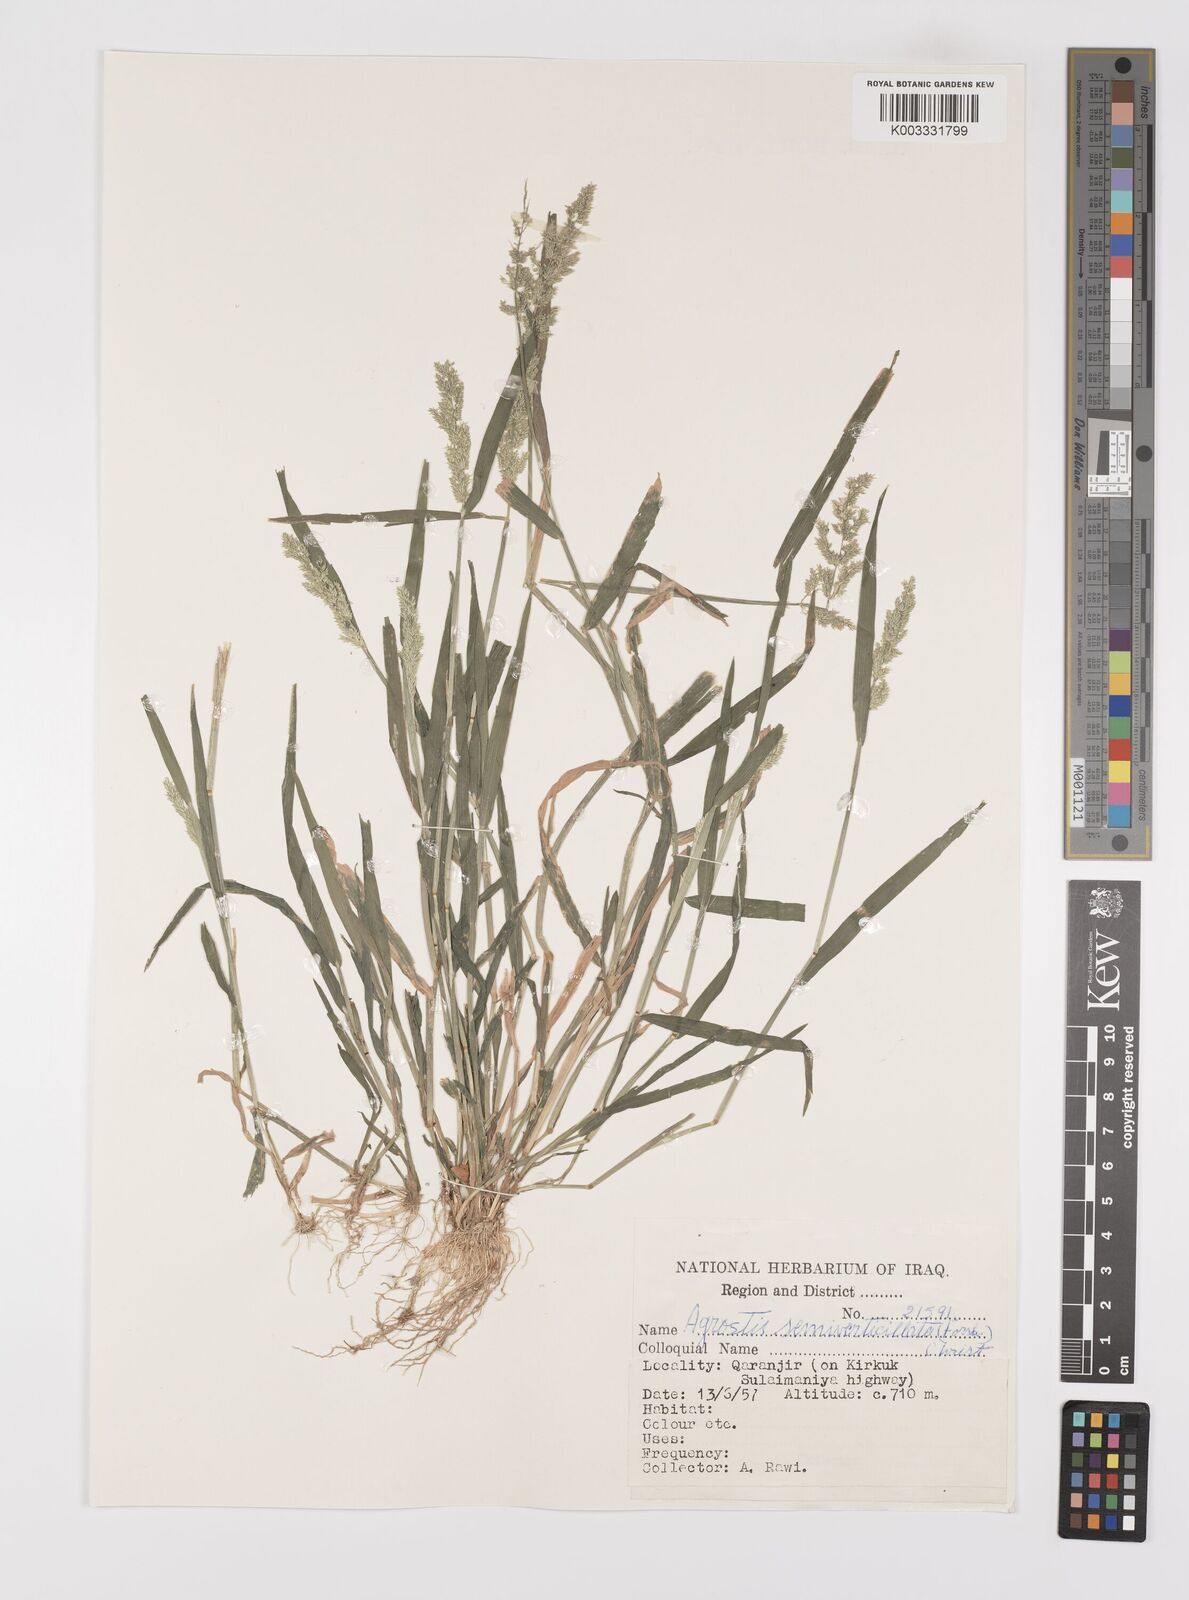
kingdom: Plantae
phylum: Tracheophyta
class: Liliopsida
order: Poales
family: Poaceae
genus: Polypogon
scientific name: Polypogon viridis
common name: Water bent
